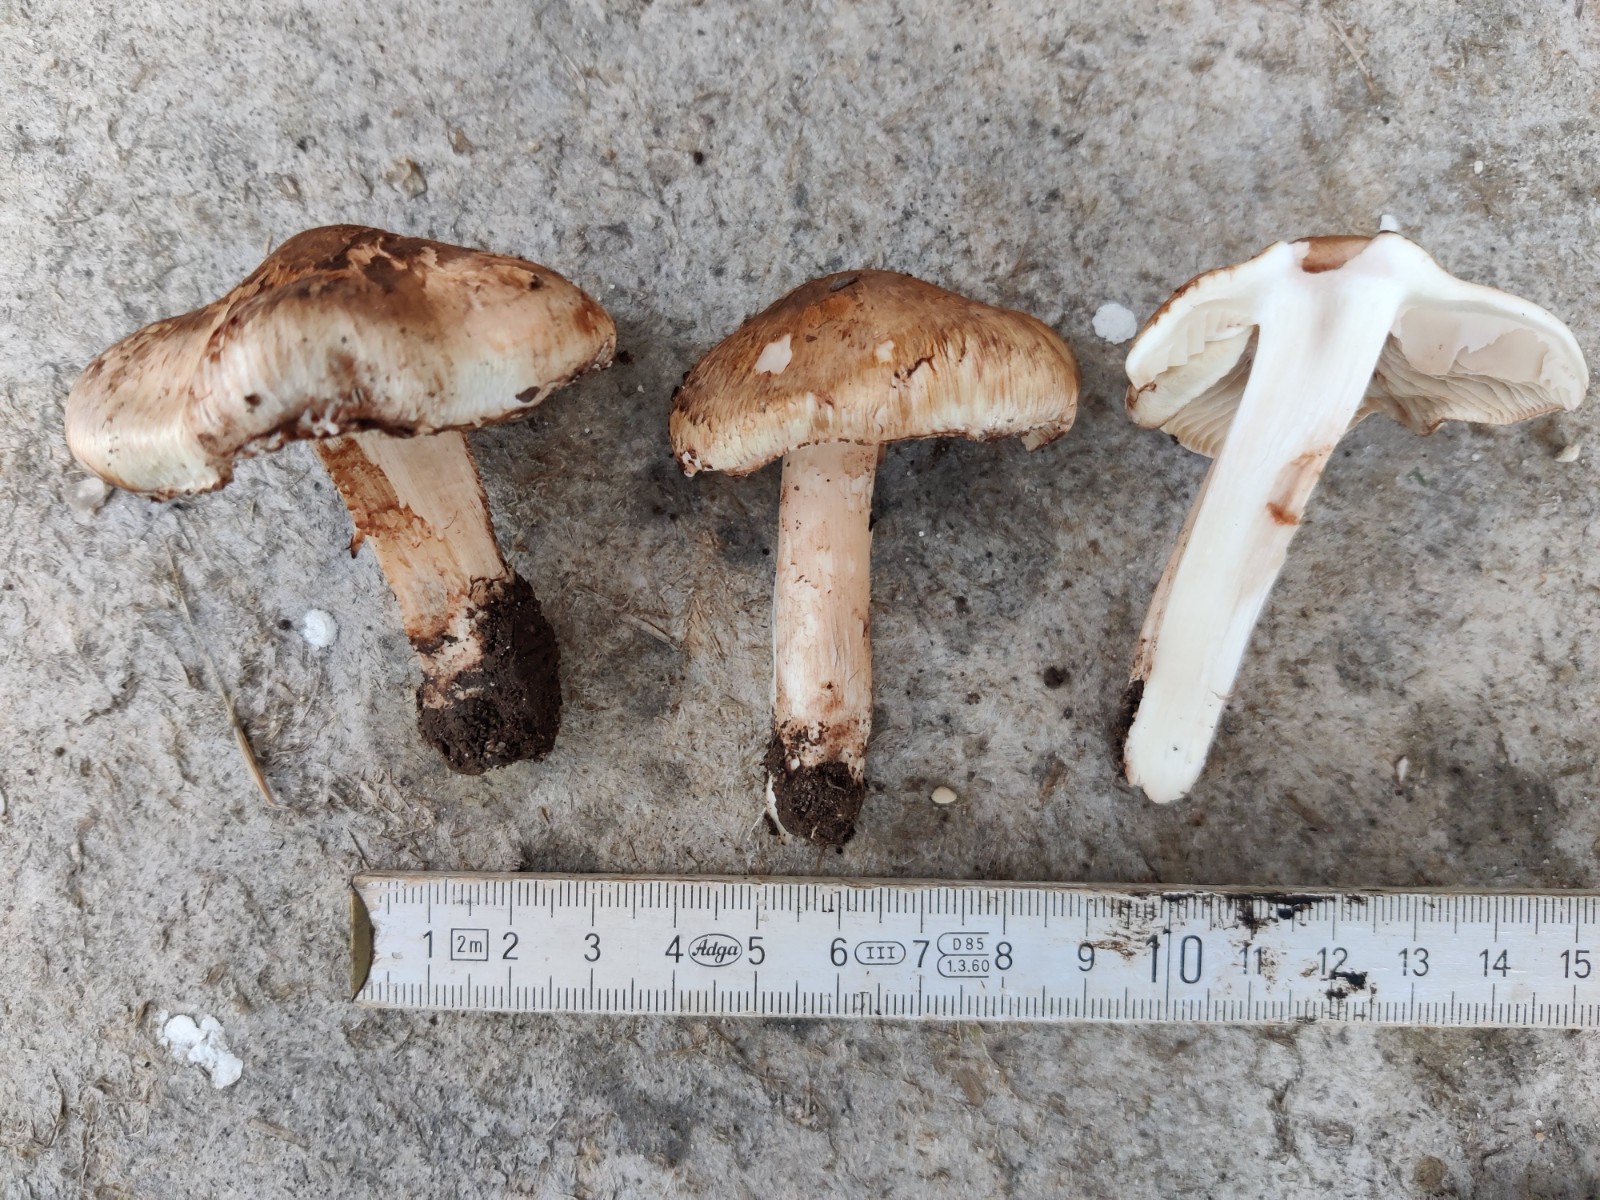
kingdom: Fungi
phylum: Basidiomycota
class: Agaricomycetes
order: Agaricales
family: Inocybaceae
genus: Inocybe
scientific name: Inocybe incarnata
